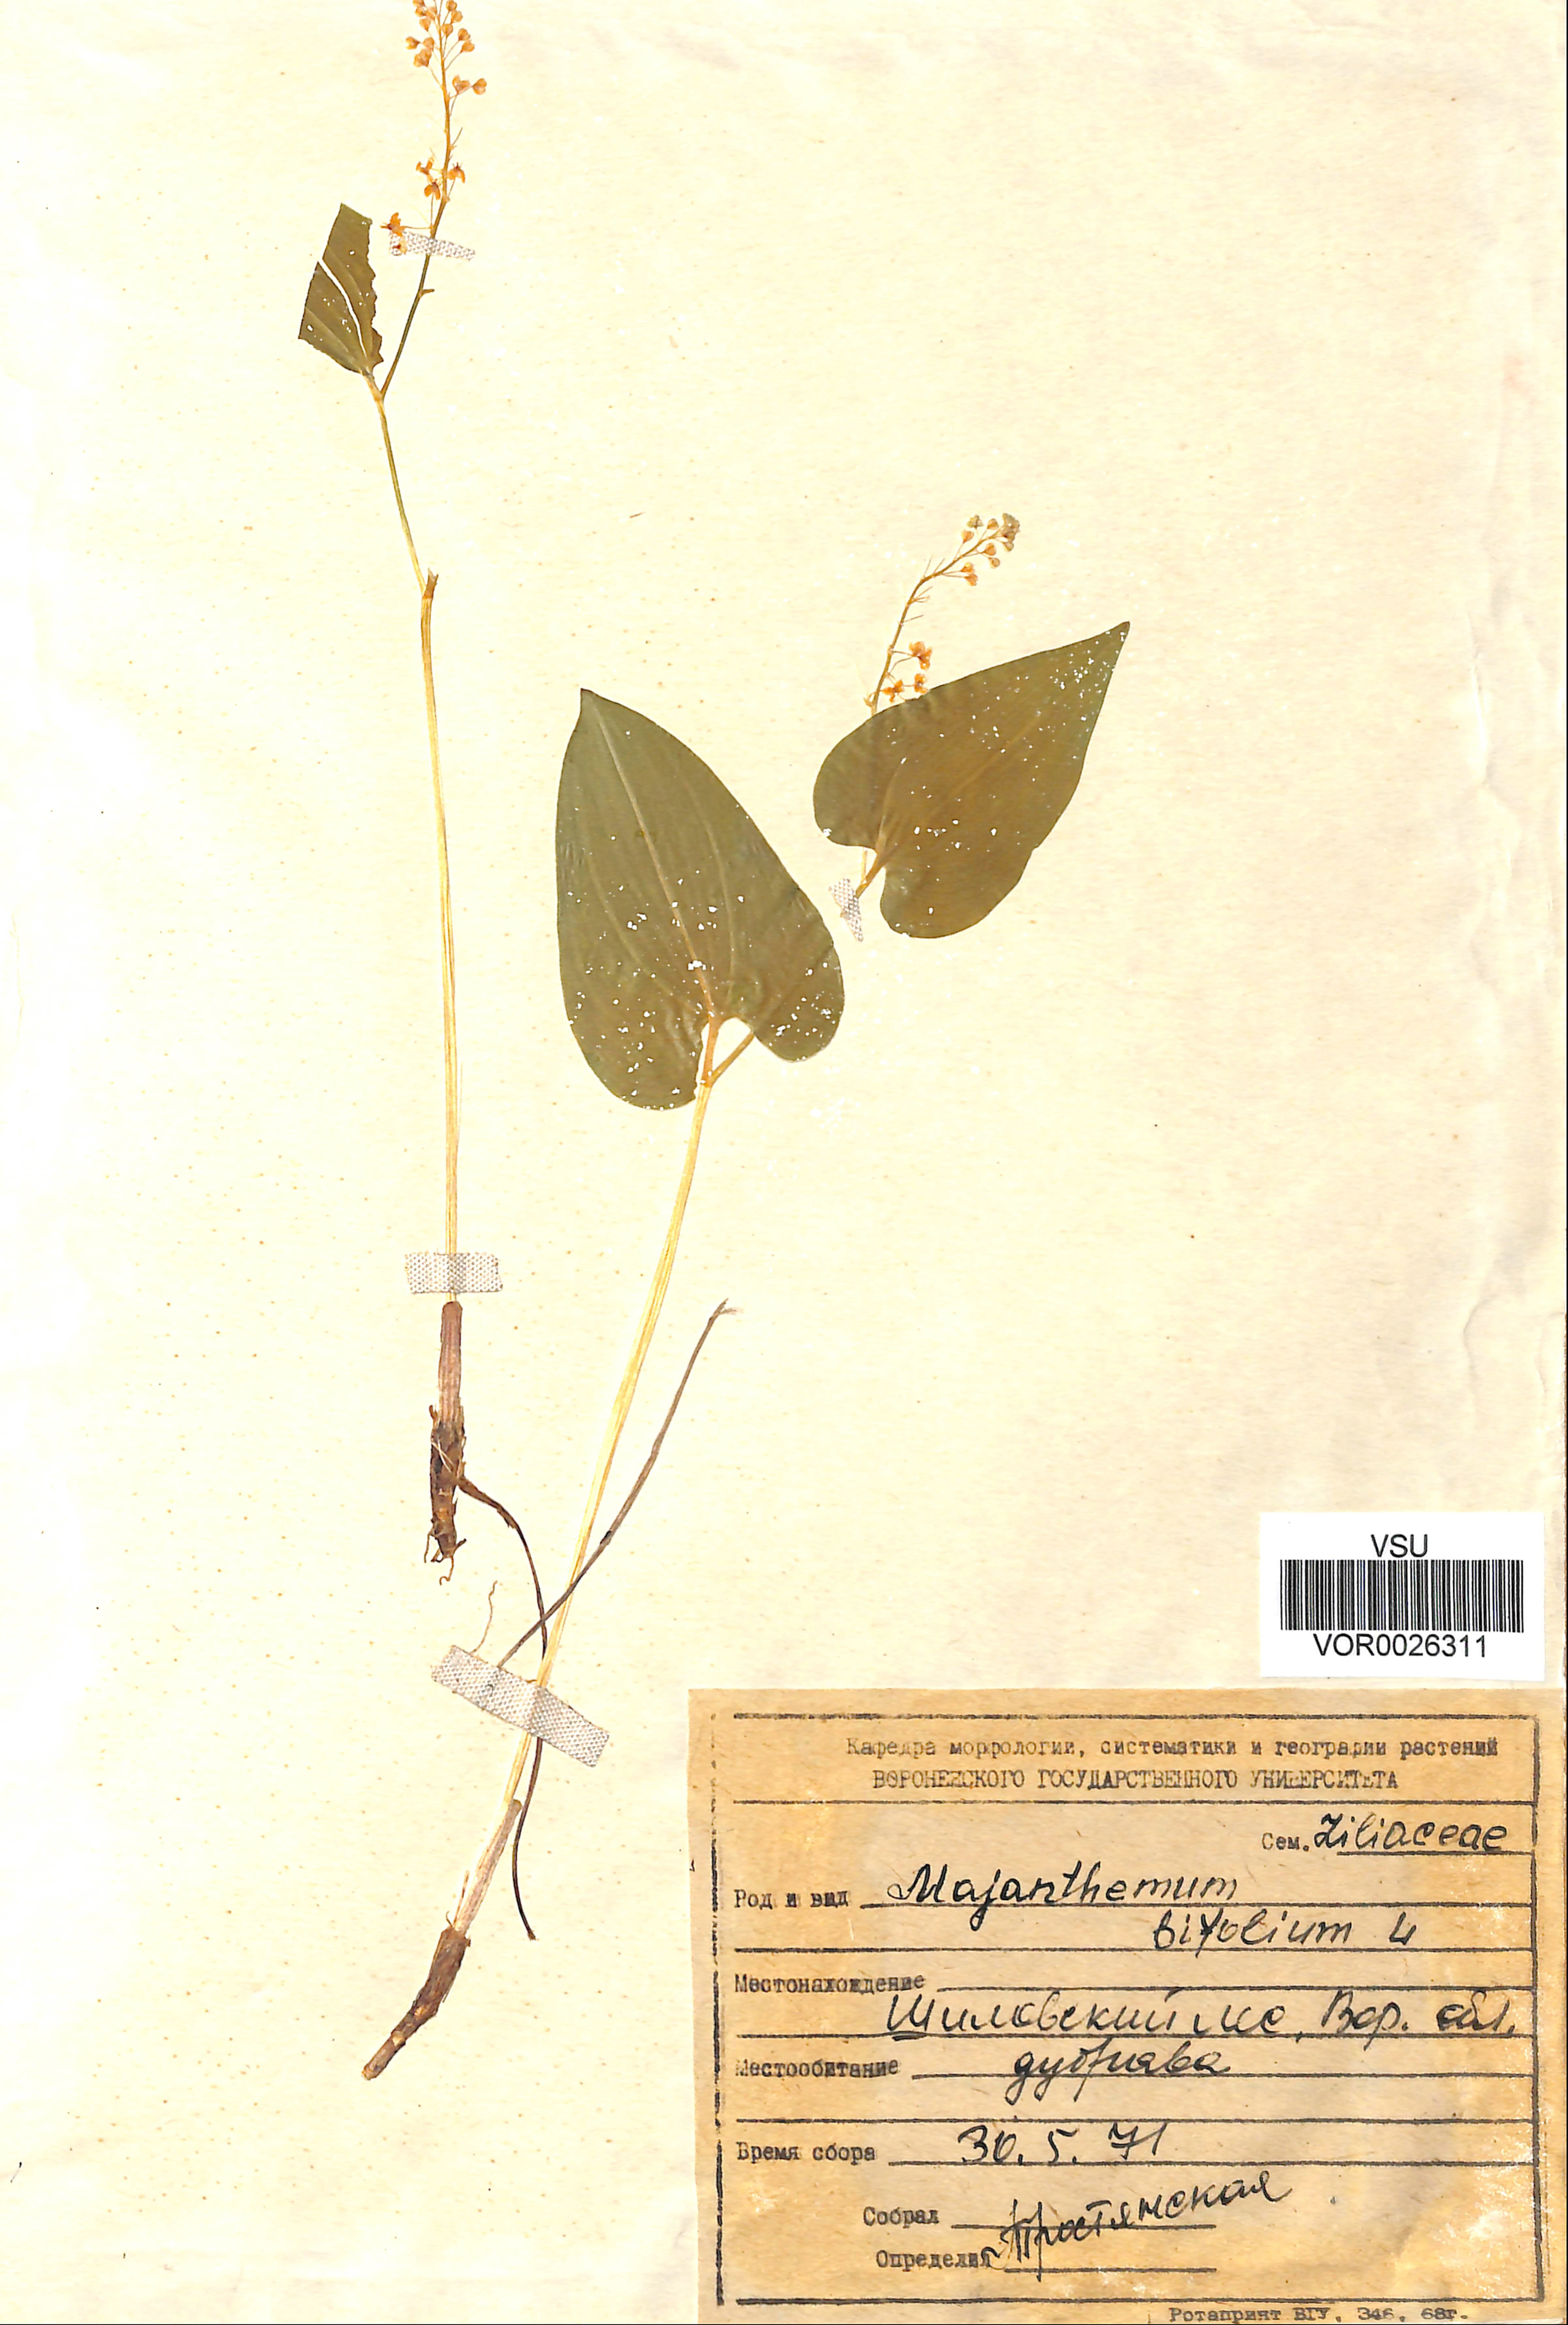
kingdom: Plantae
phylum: Tracheophyta
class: Liliopsida
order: Asparagales
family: Asparagaceae
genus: Maianthemum
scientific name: Maianthemum bifolium
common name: May lily
